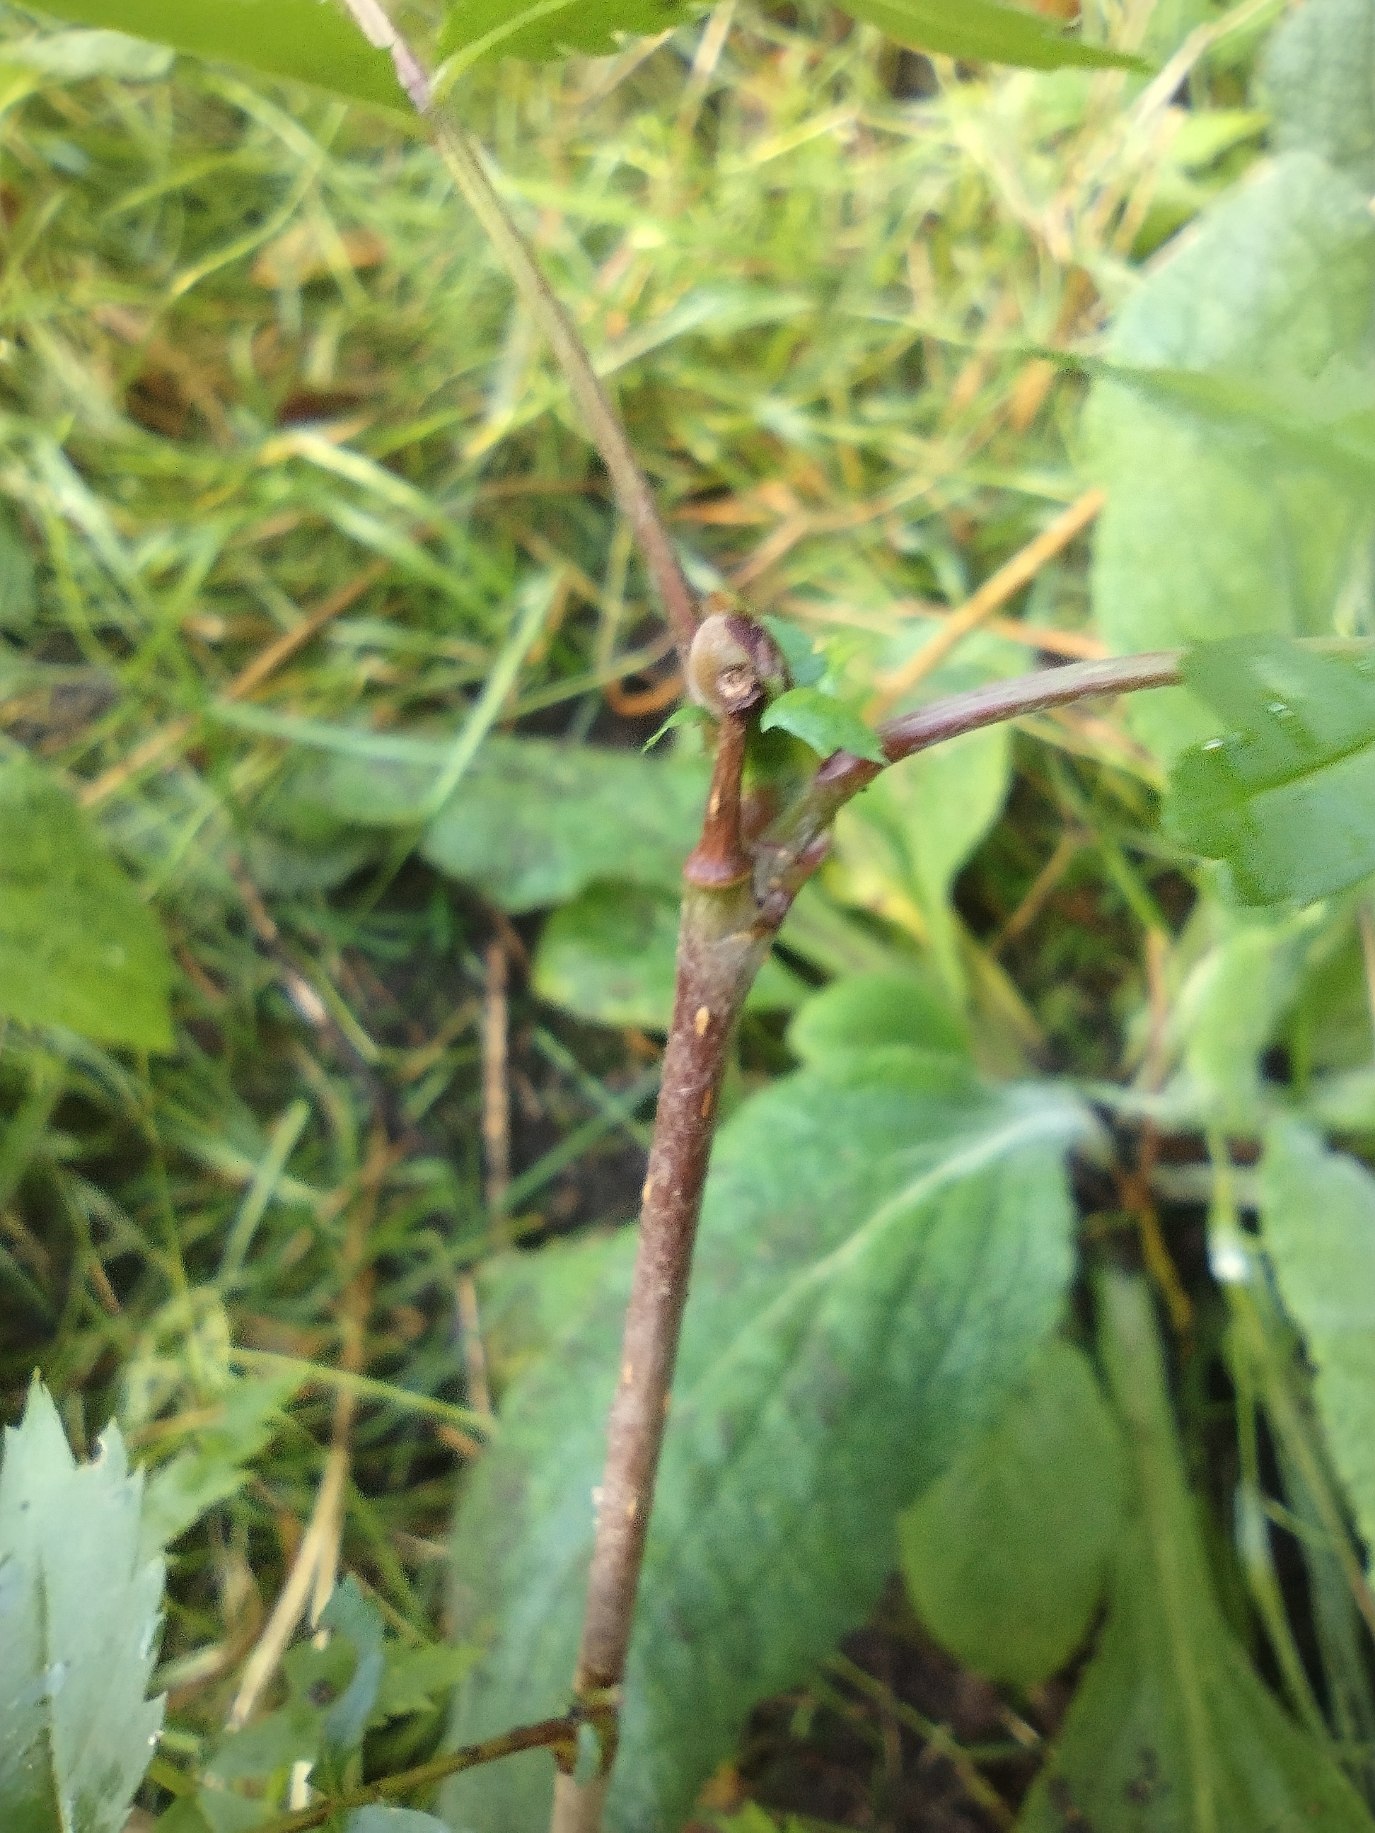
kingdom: Plantae
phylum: Tracheophyta
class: Magnoliopsida
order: Rosales
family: Rosaceae
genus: Sorbus
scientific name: Sorbus aucuparia
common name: Almindelig røn
